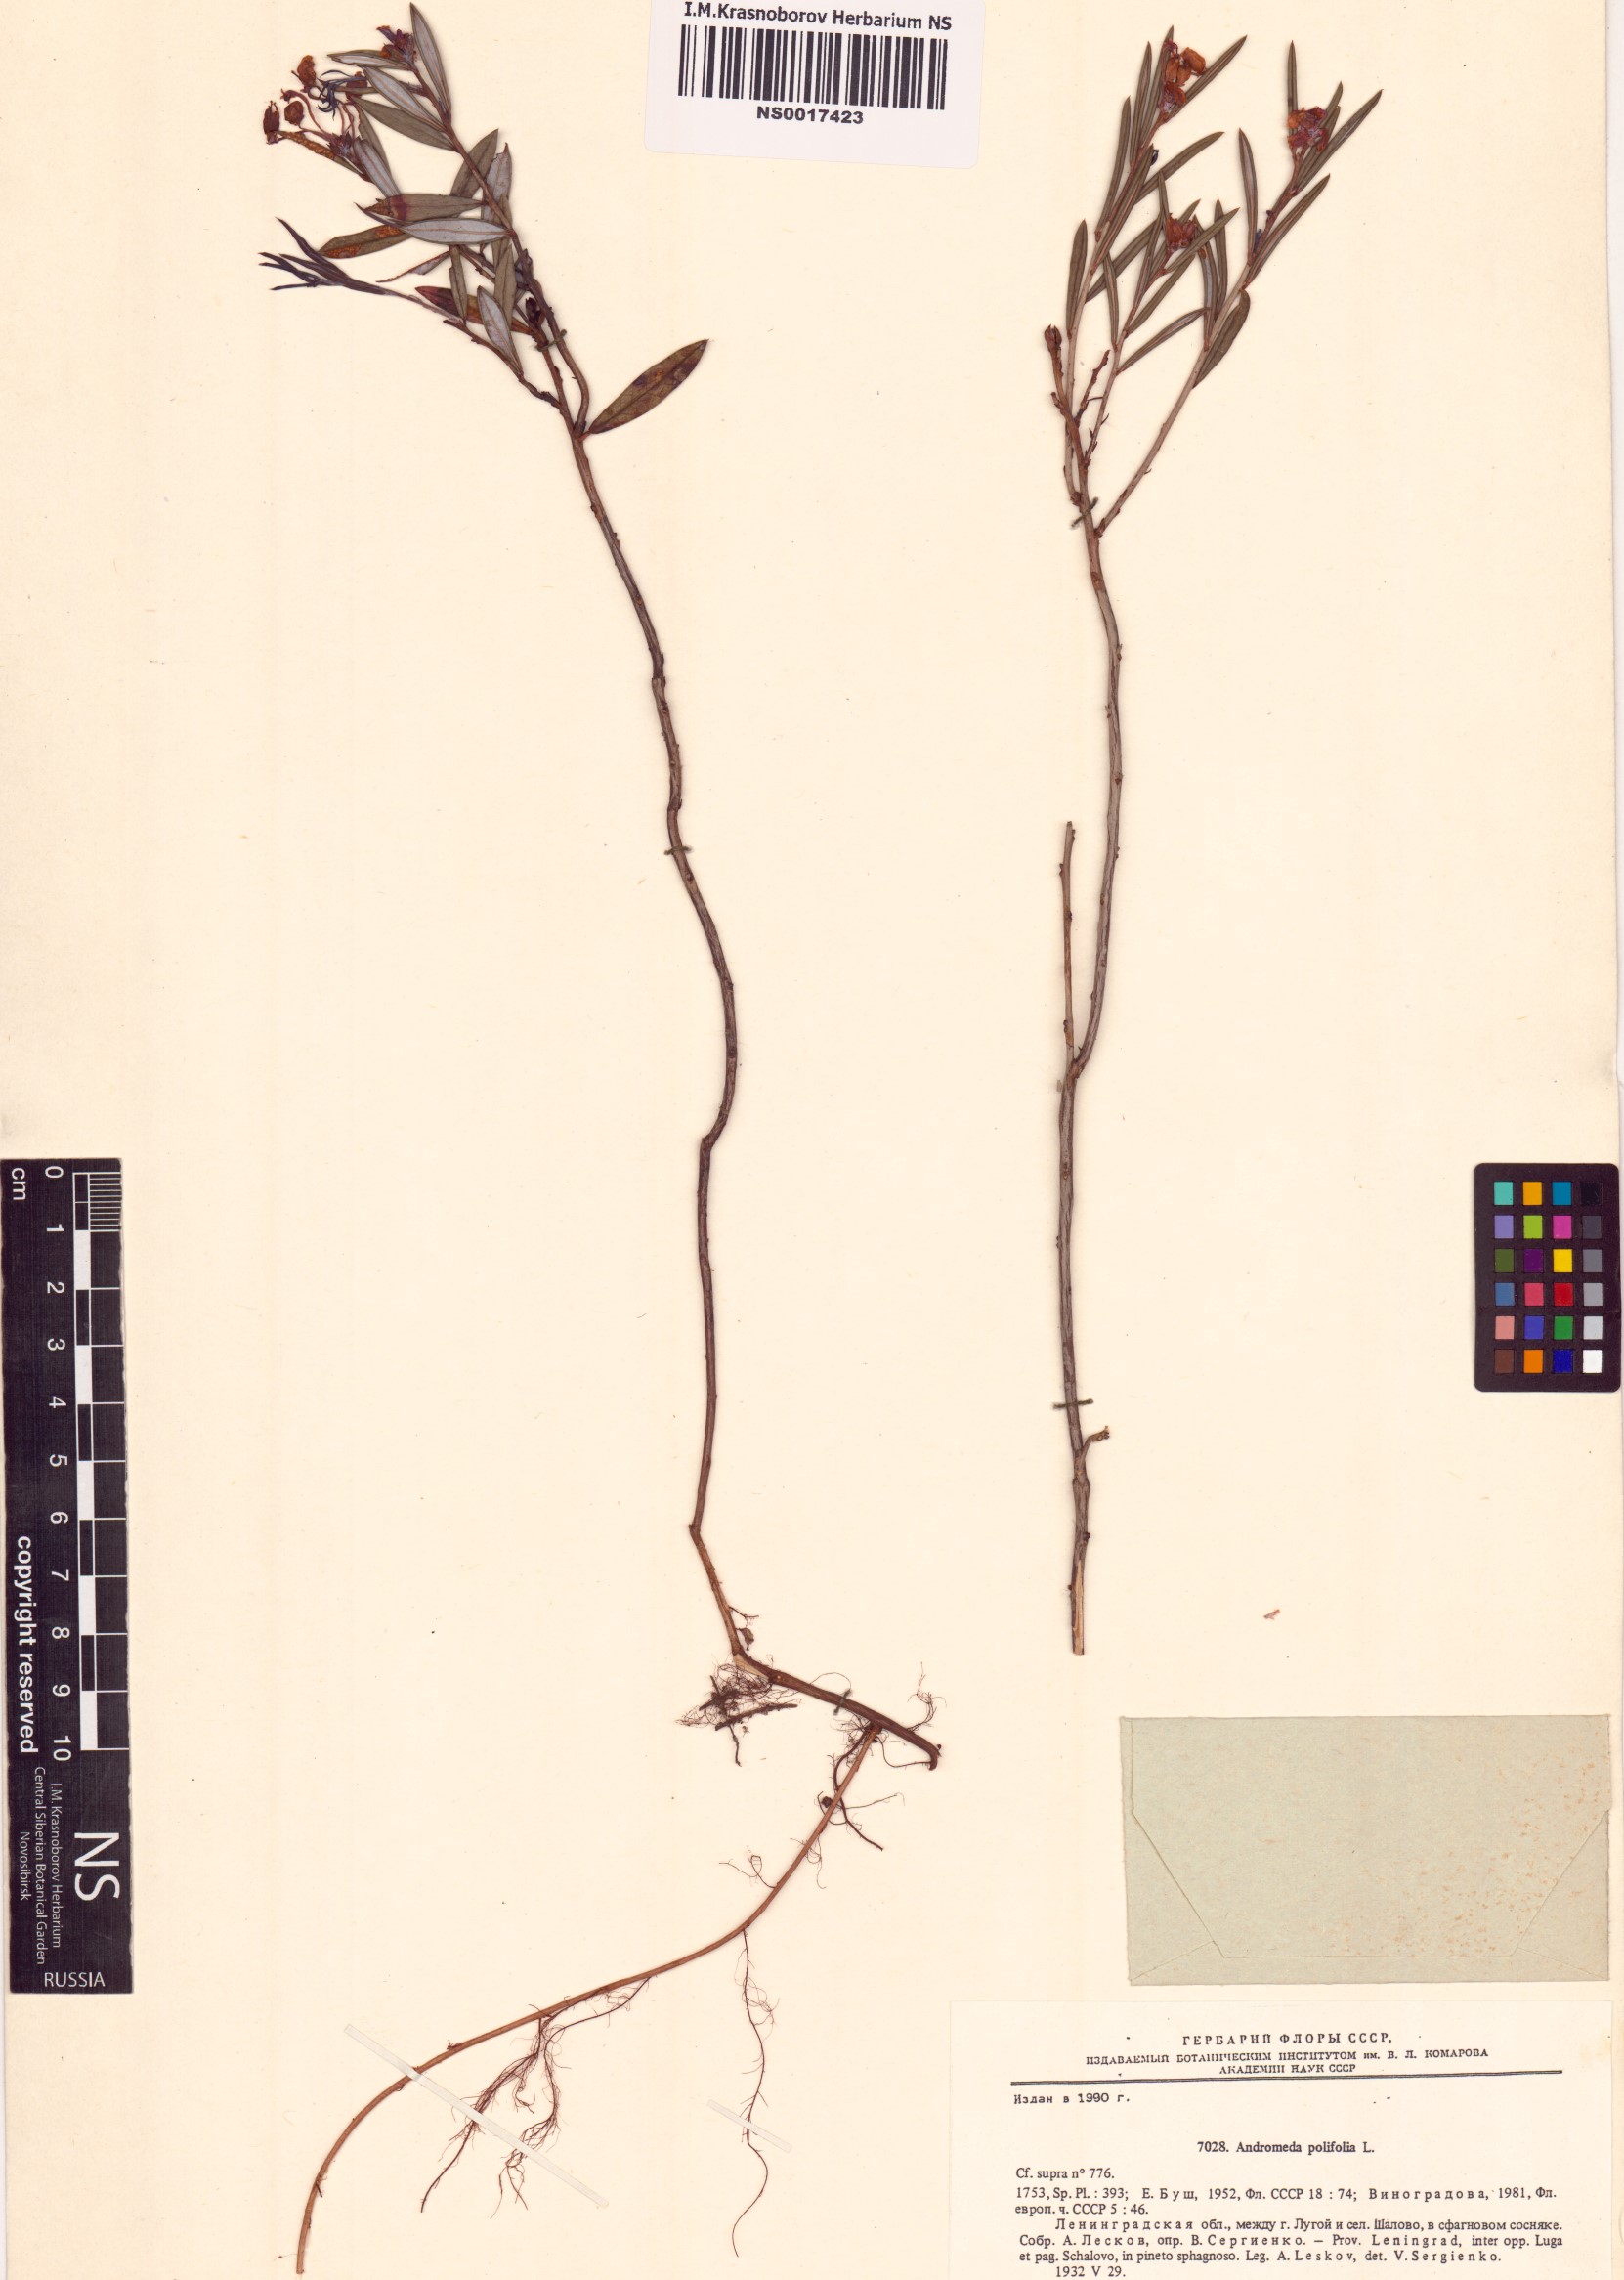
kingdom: Plantae
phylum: Tracheophyta
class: Magnoliopsida
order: Ericales
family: Ericaceae
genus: Andromeda
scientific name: Andromeda polifolia
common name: Bog-rosemary
